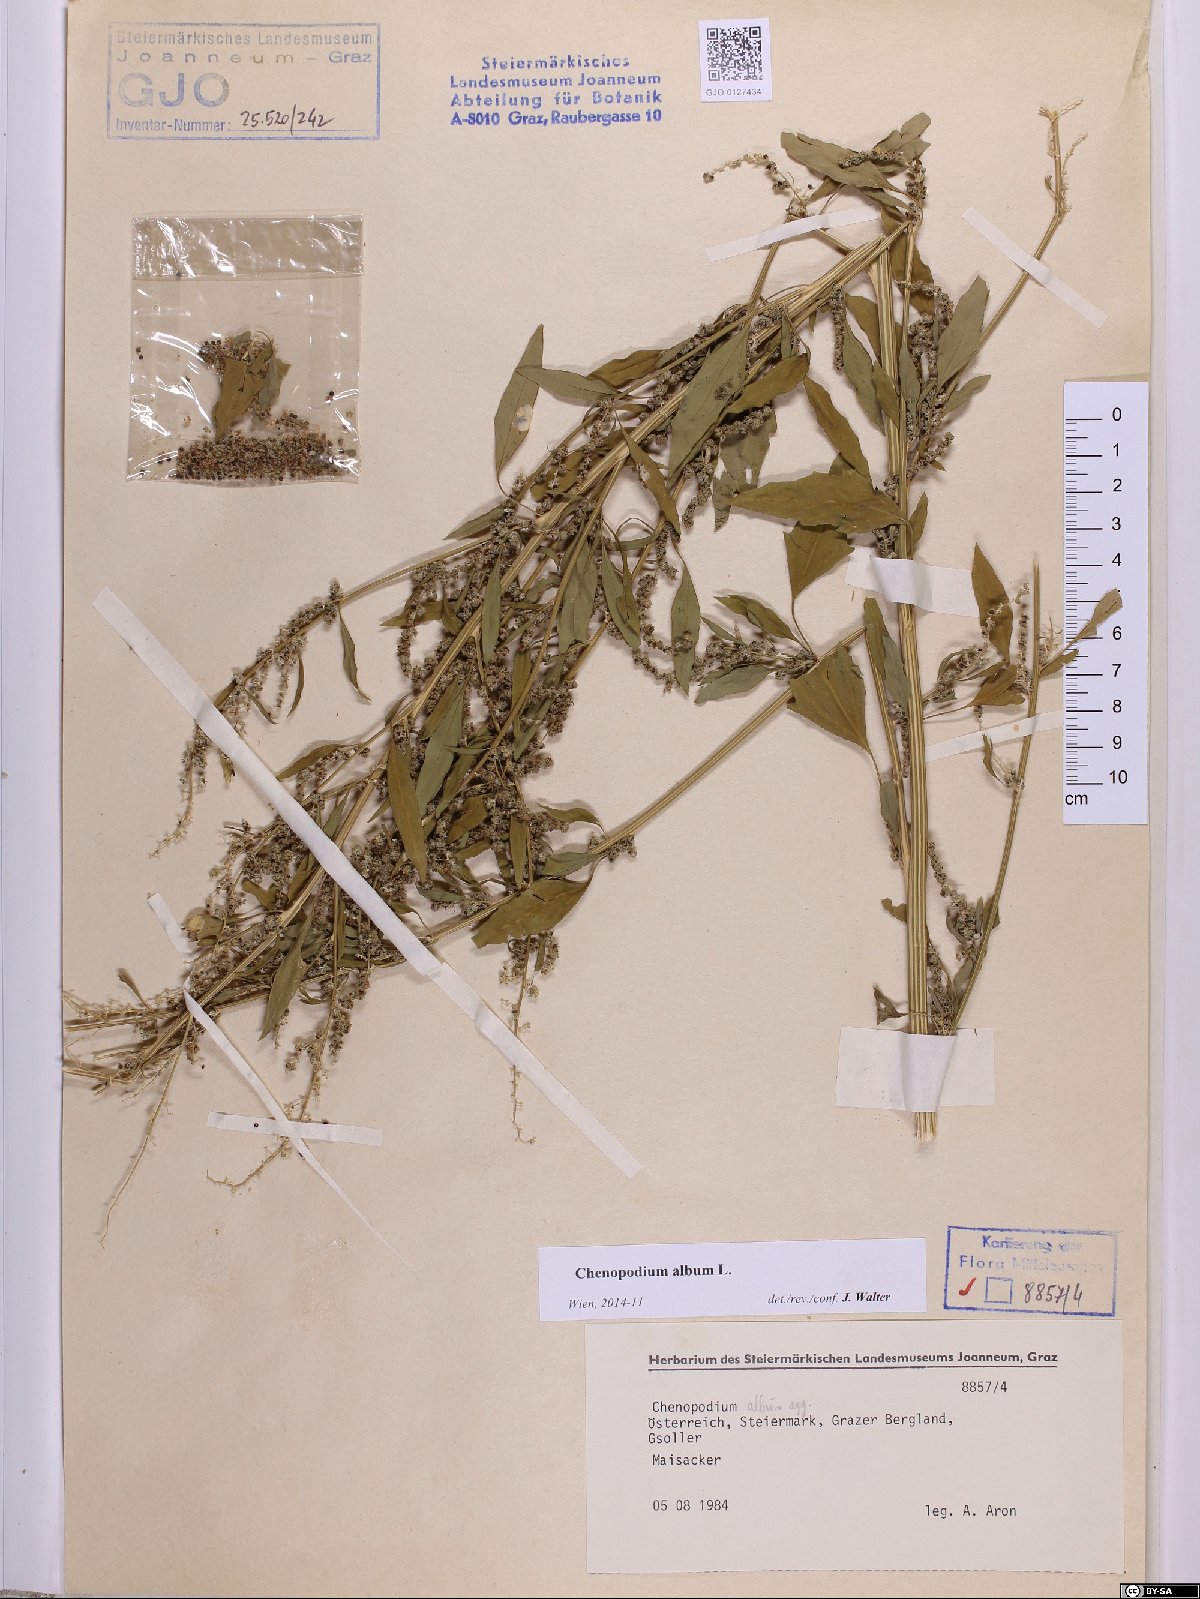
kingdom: Plantae
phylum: Tracheophyta
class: Magnoliopsida
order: Caryophyllales
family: Amaranthaceae
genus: Chenopodium
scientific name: Chenopodium album
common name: Fat-hen
